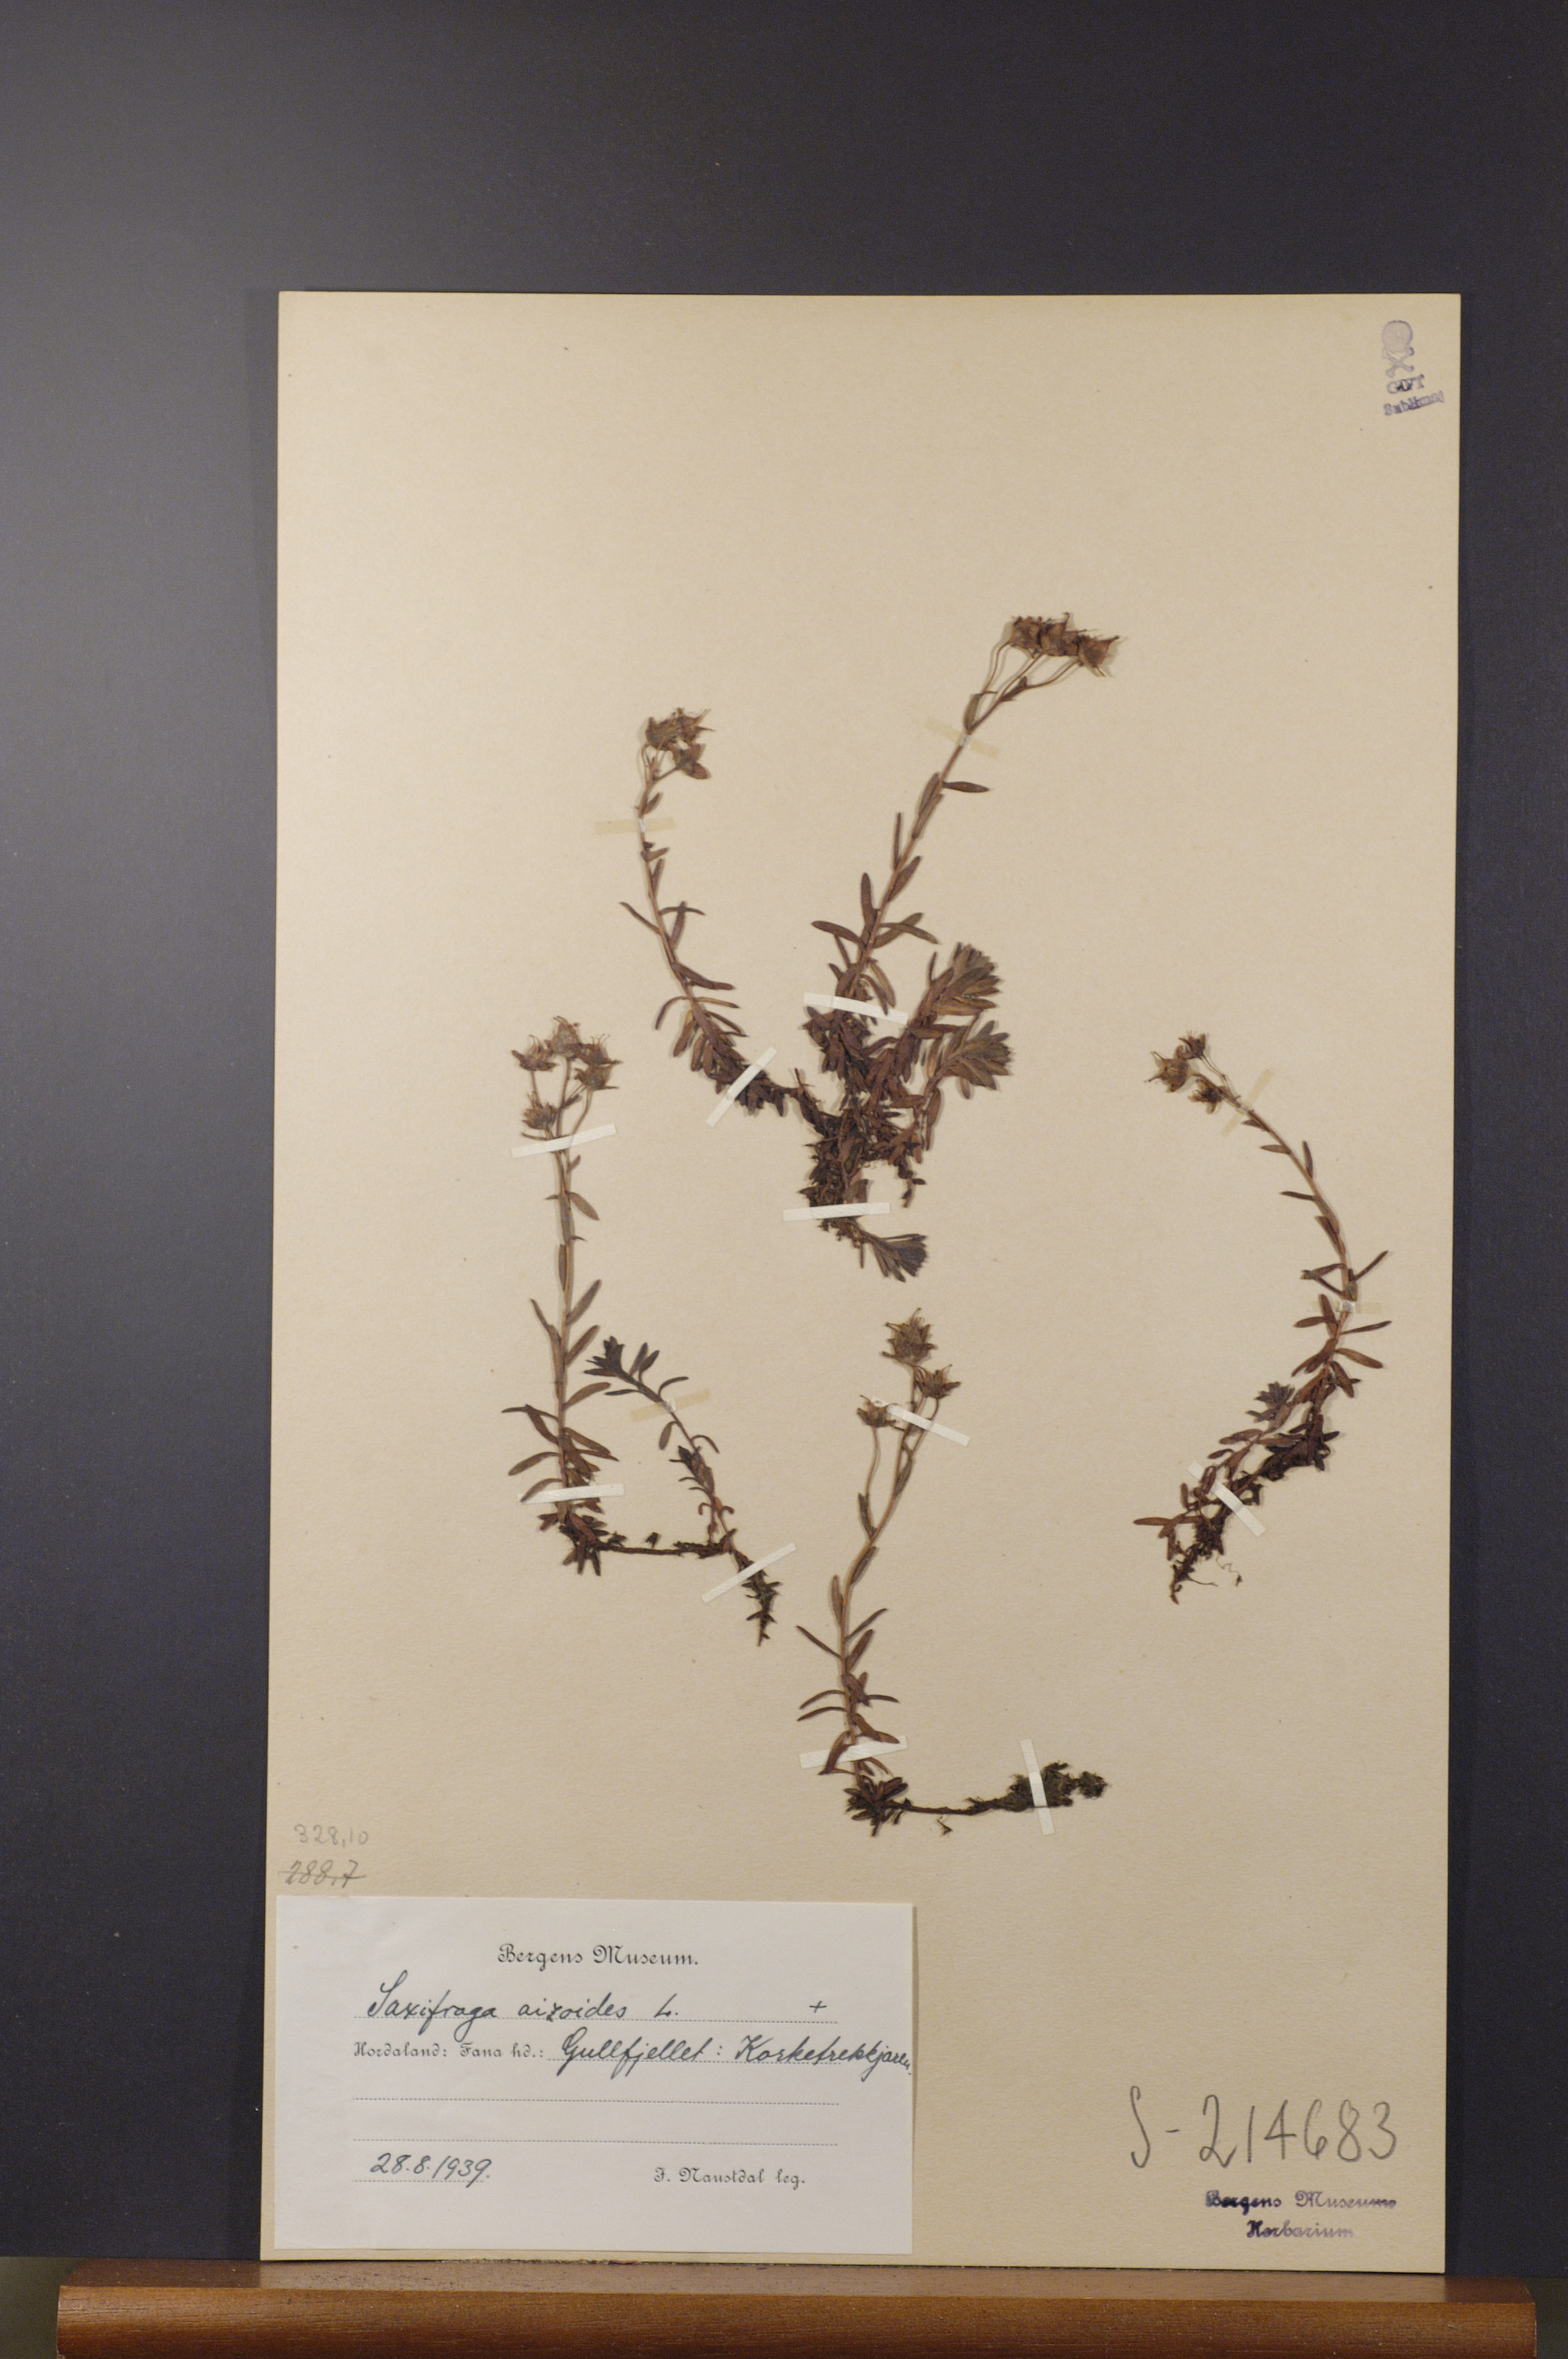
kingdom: Plantae
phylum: Tracheophyta
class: Magnoliopsida
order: Saxifragales
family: Saxifragaceae
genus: Saxifraga
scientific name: Saxifraga aizoides
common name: Yellow mountain saxifrage
